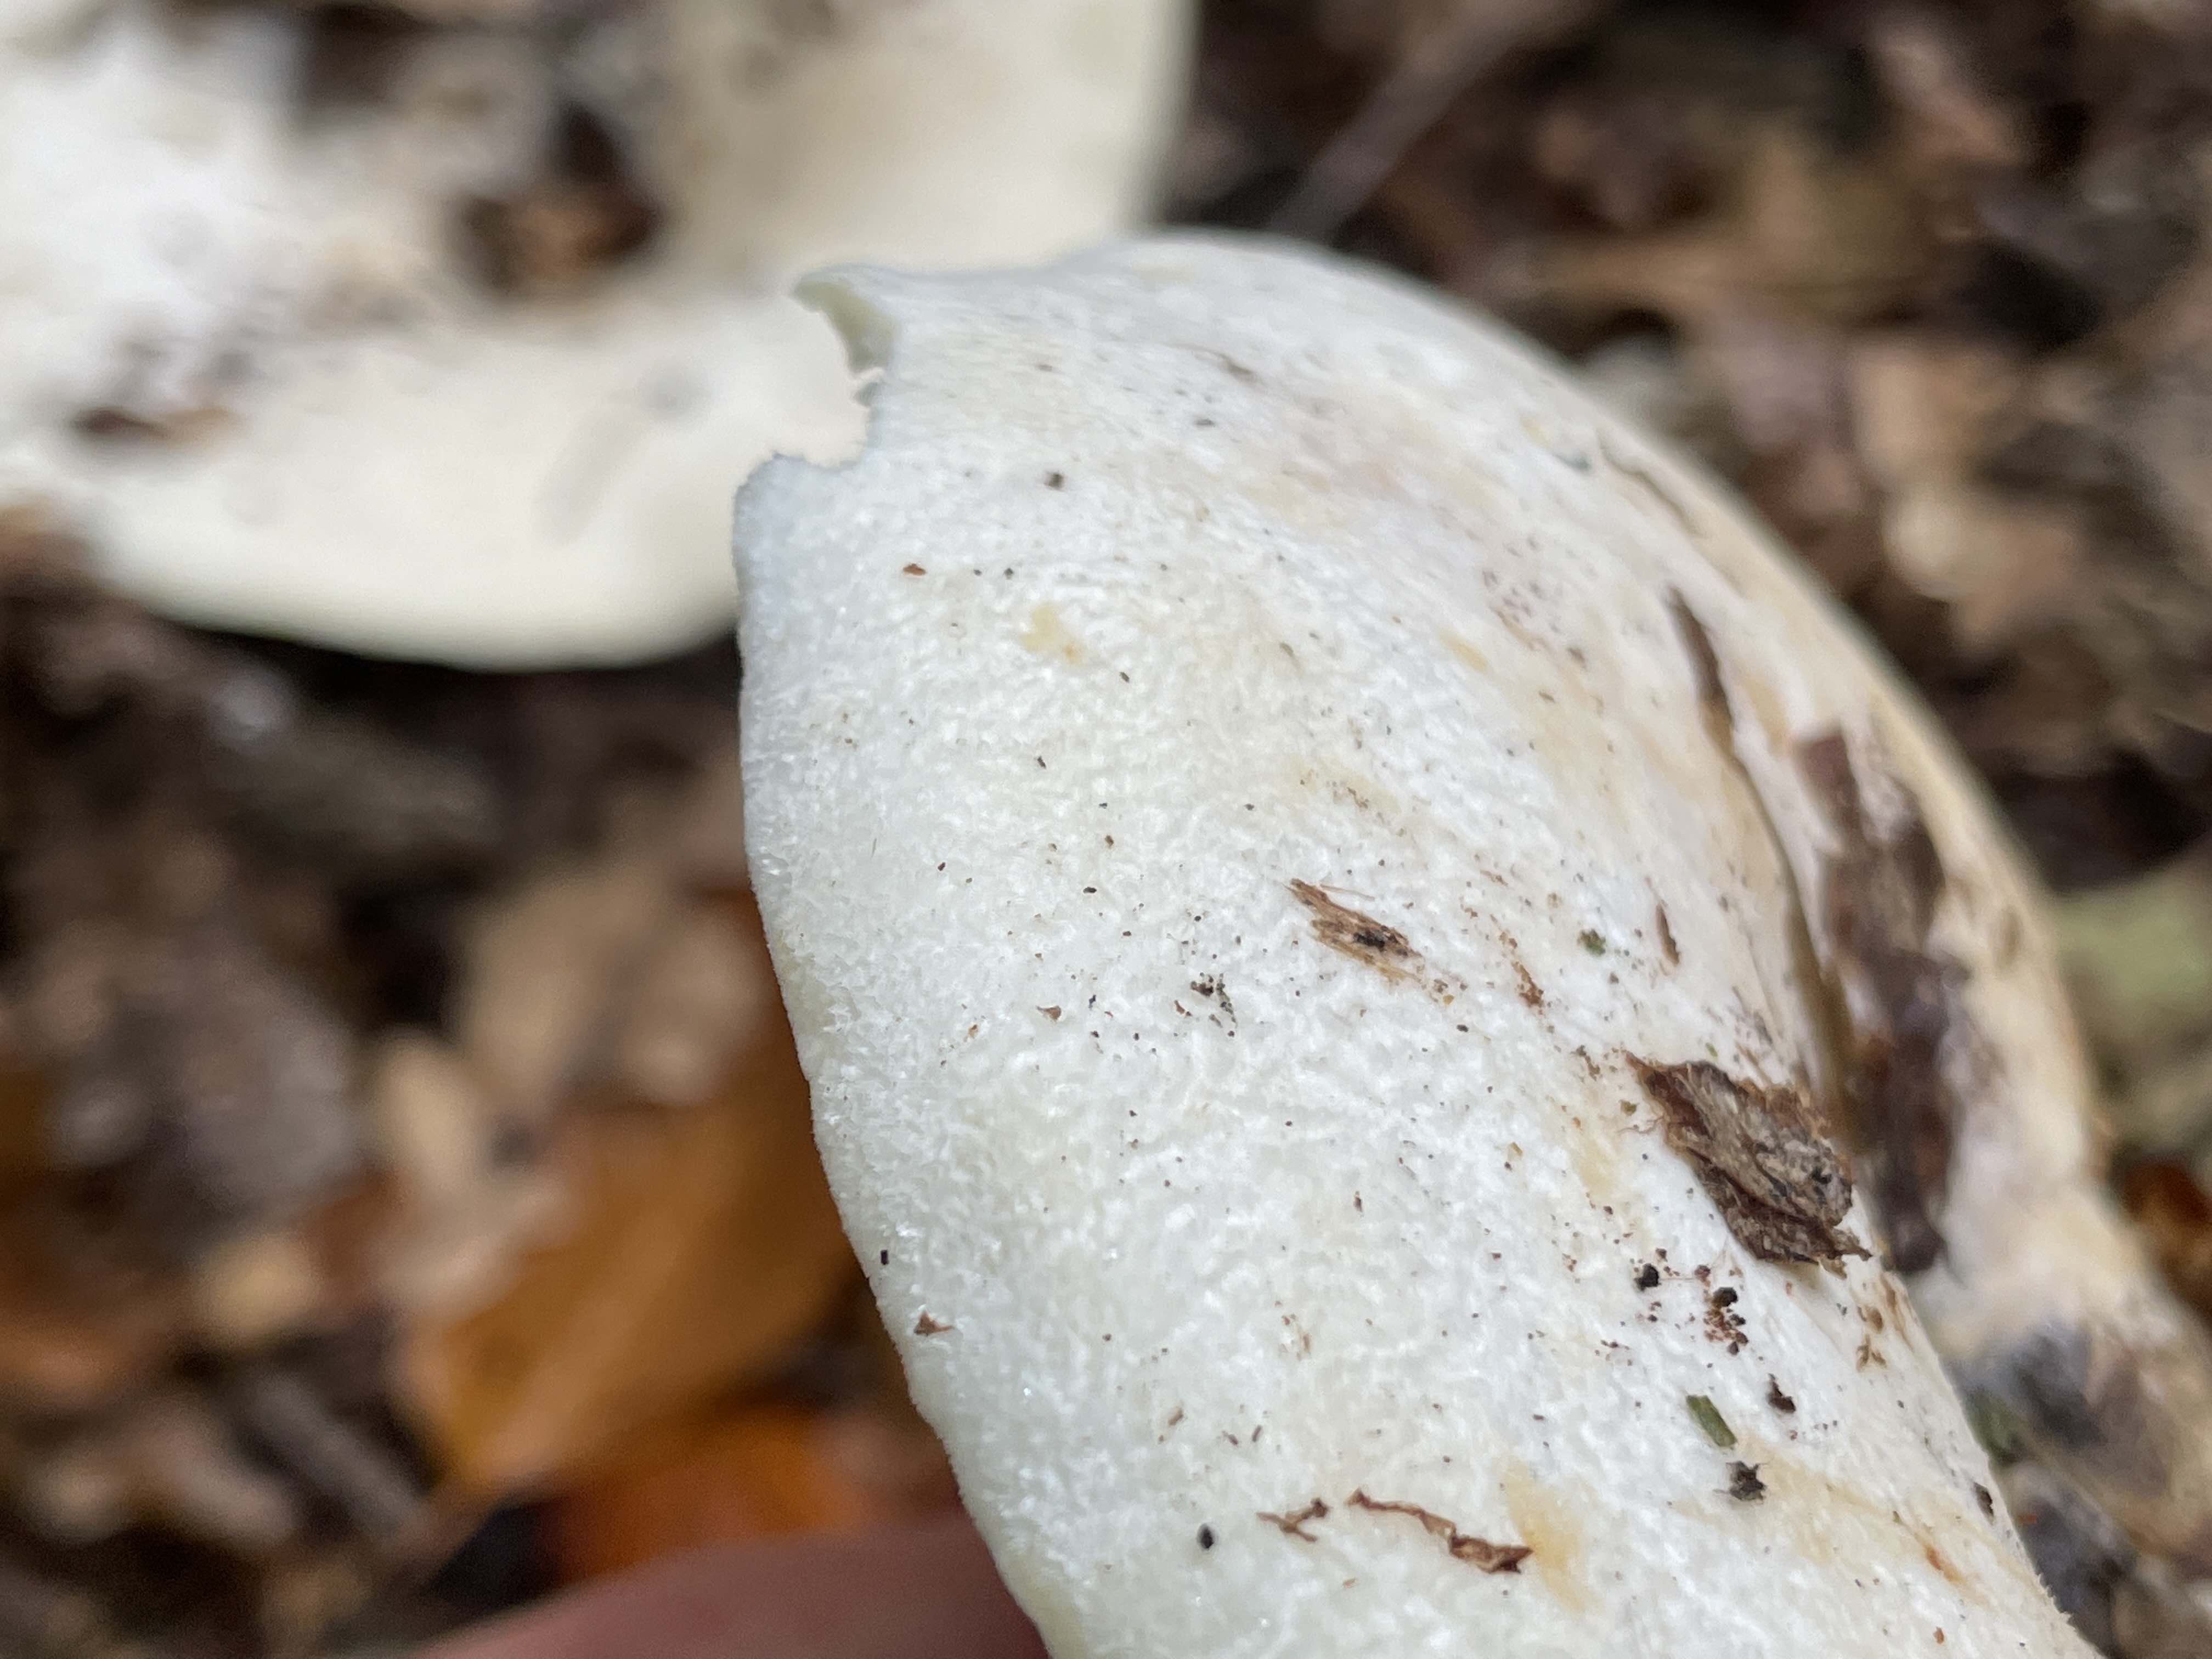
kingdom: Fungi
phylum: Basidiomycota
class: Agaricomycetes
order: Russulales
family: Russulaceae
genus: Lactifluus
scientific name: Lactifluus vellereus
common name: hvidfiltet mælkehat
